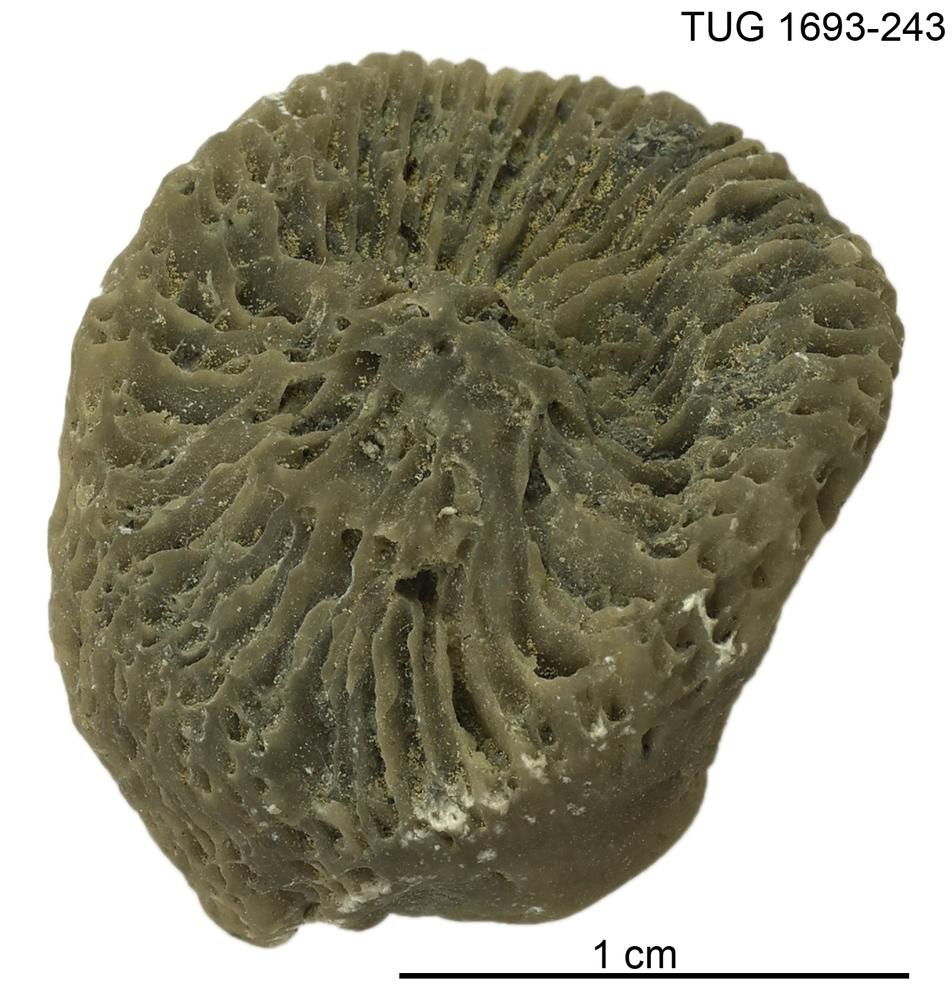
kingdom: Animalia
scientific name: Animalia
